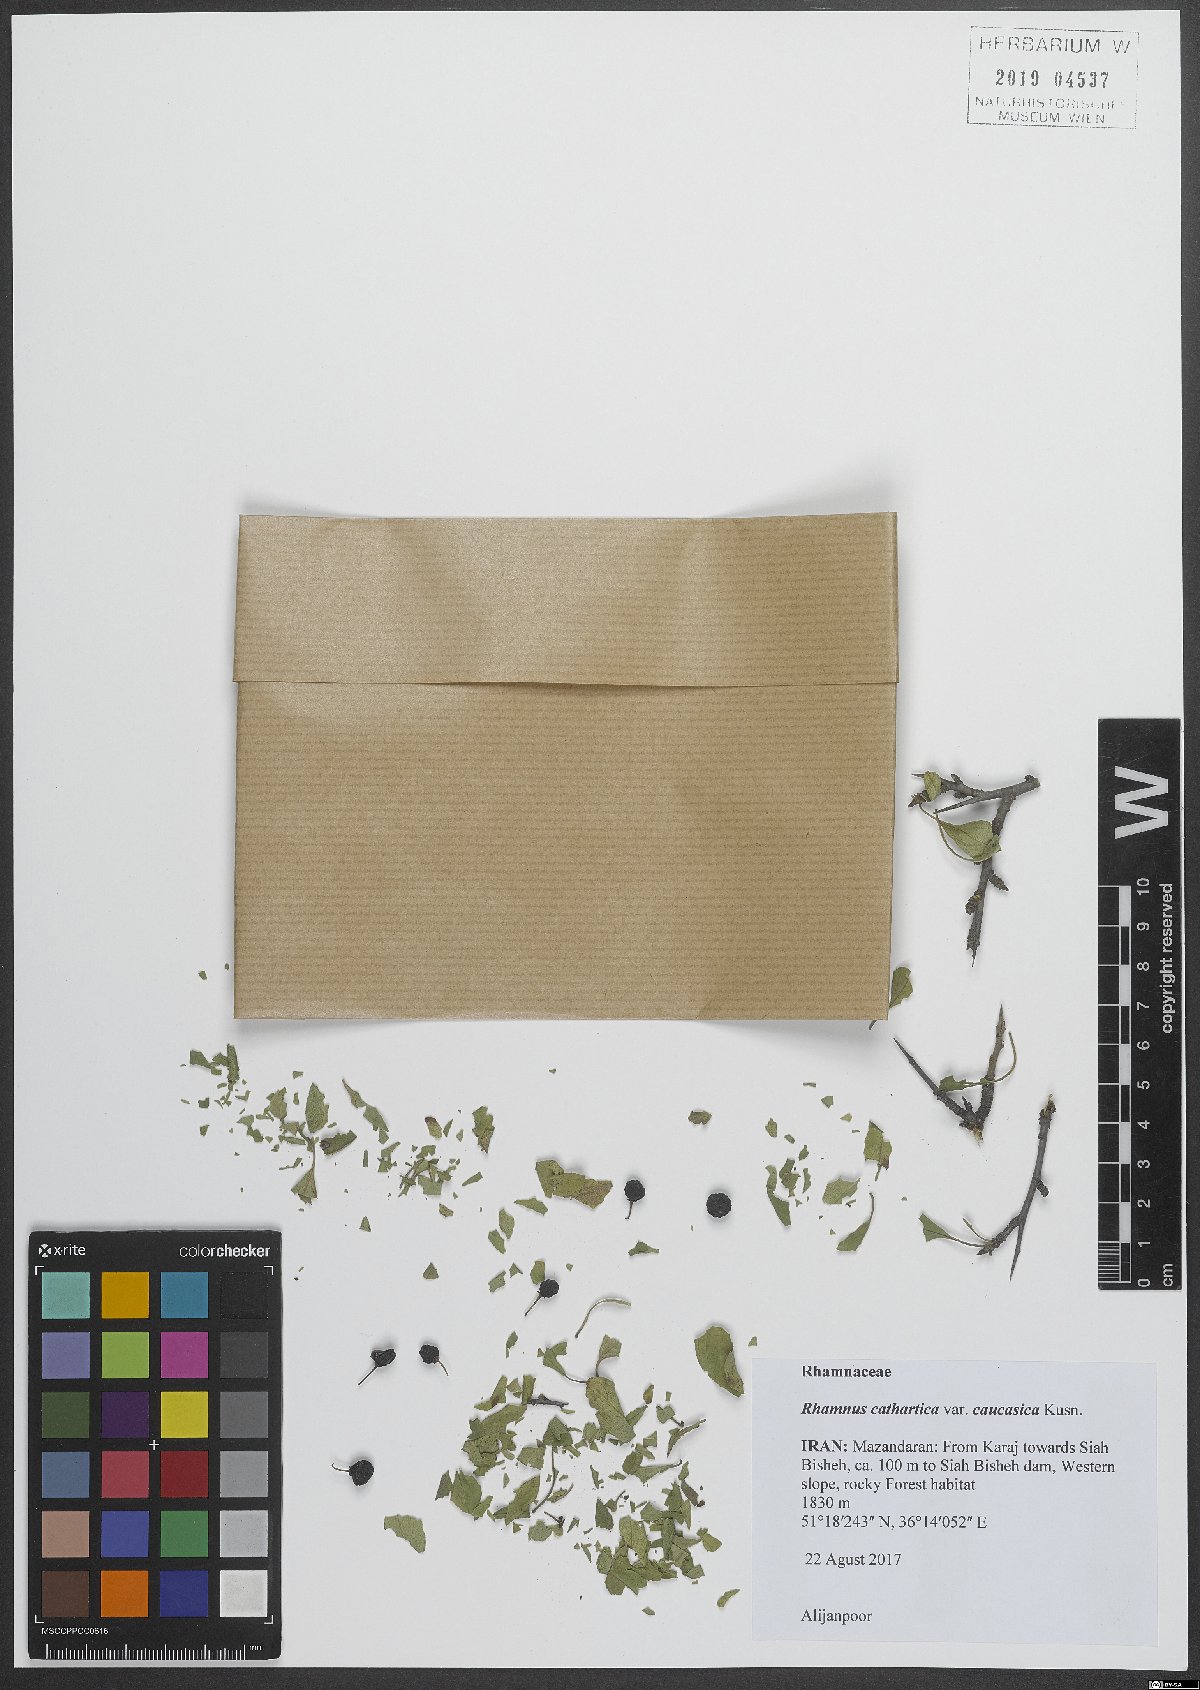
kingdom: Plantae
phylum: Tracheophyta
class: Magnoliopsida
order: Rosales
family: Rhamnaceae
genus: Rhamnus
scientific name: Rhamnus cathartica
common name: Common buckthorn
